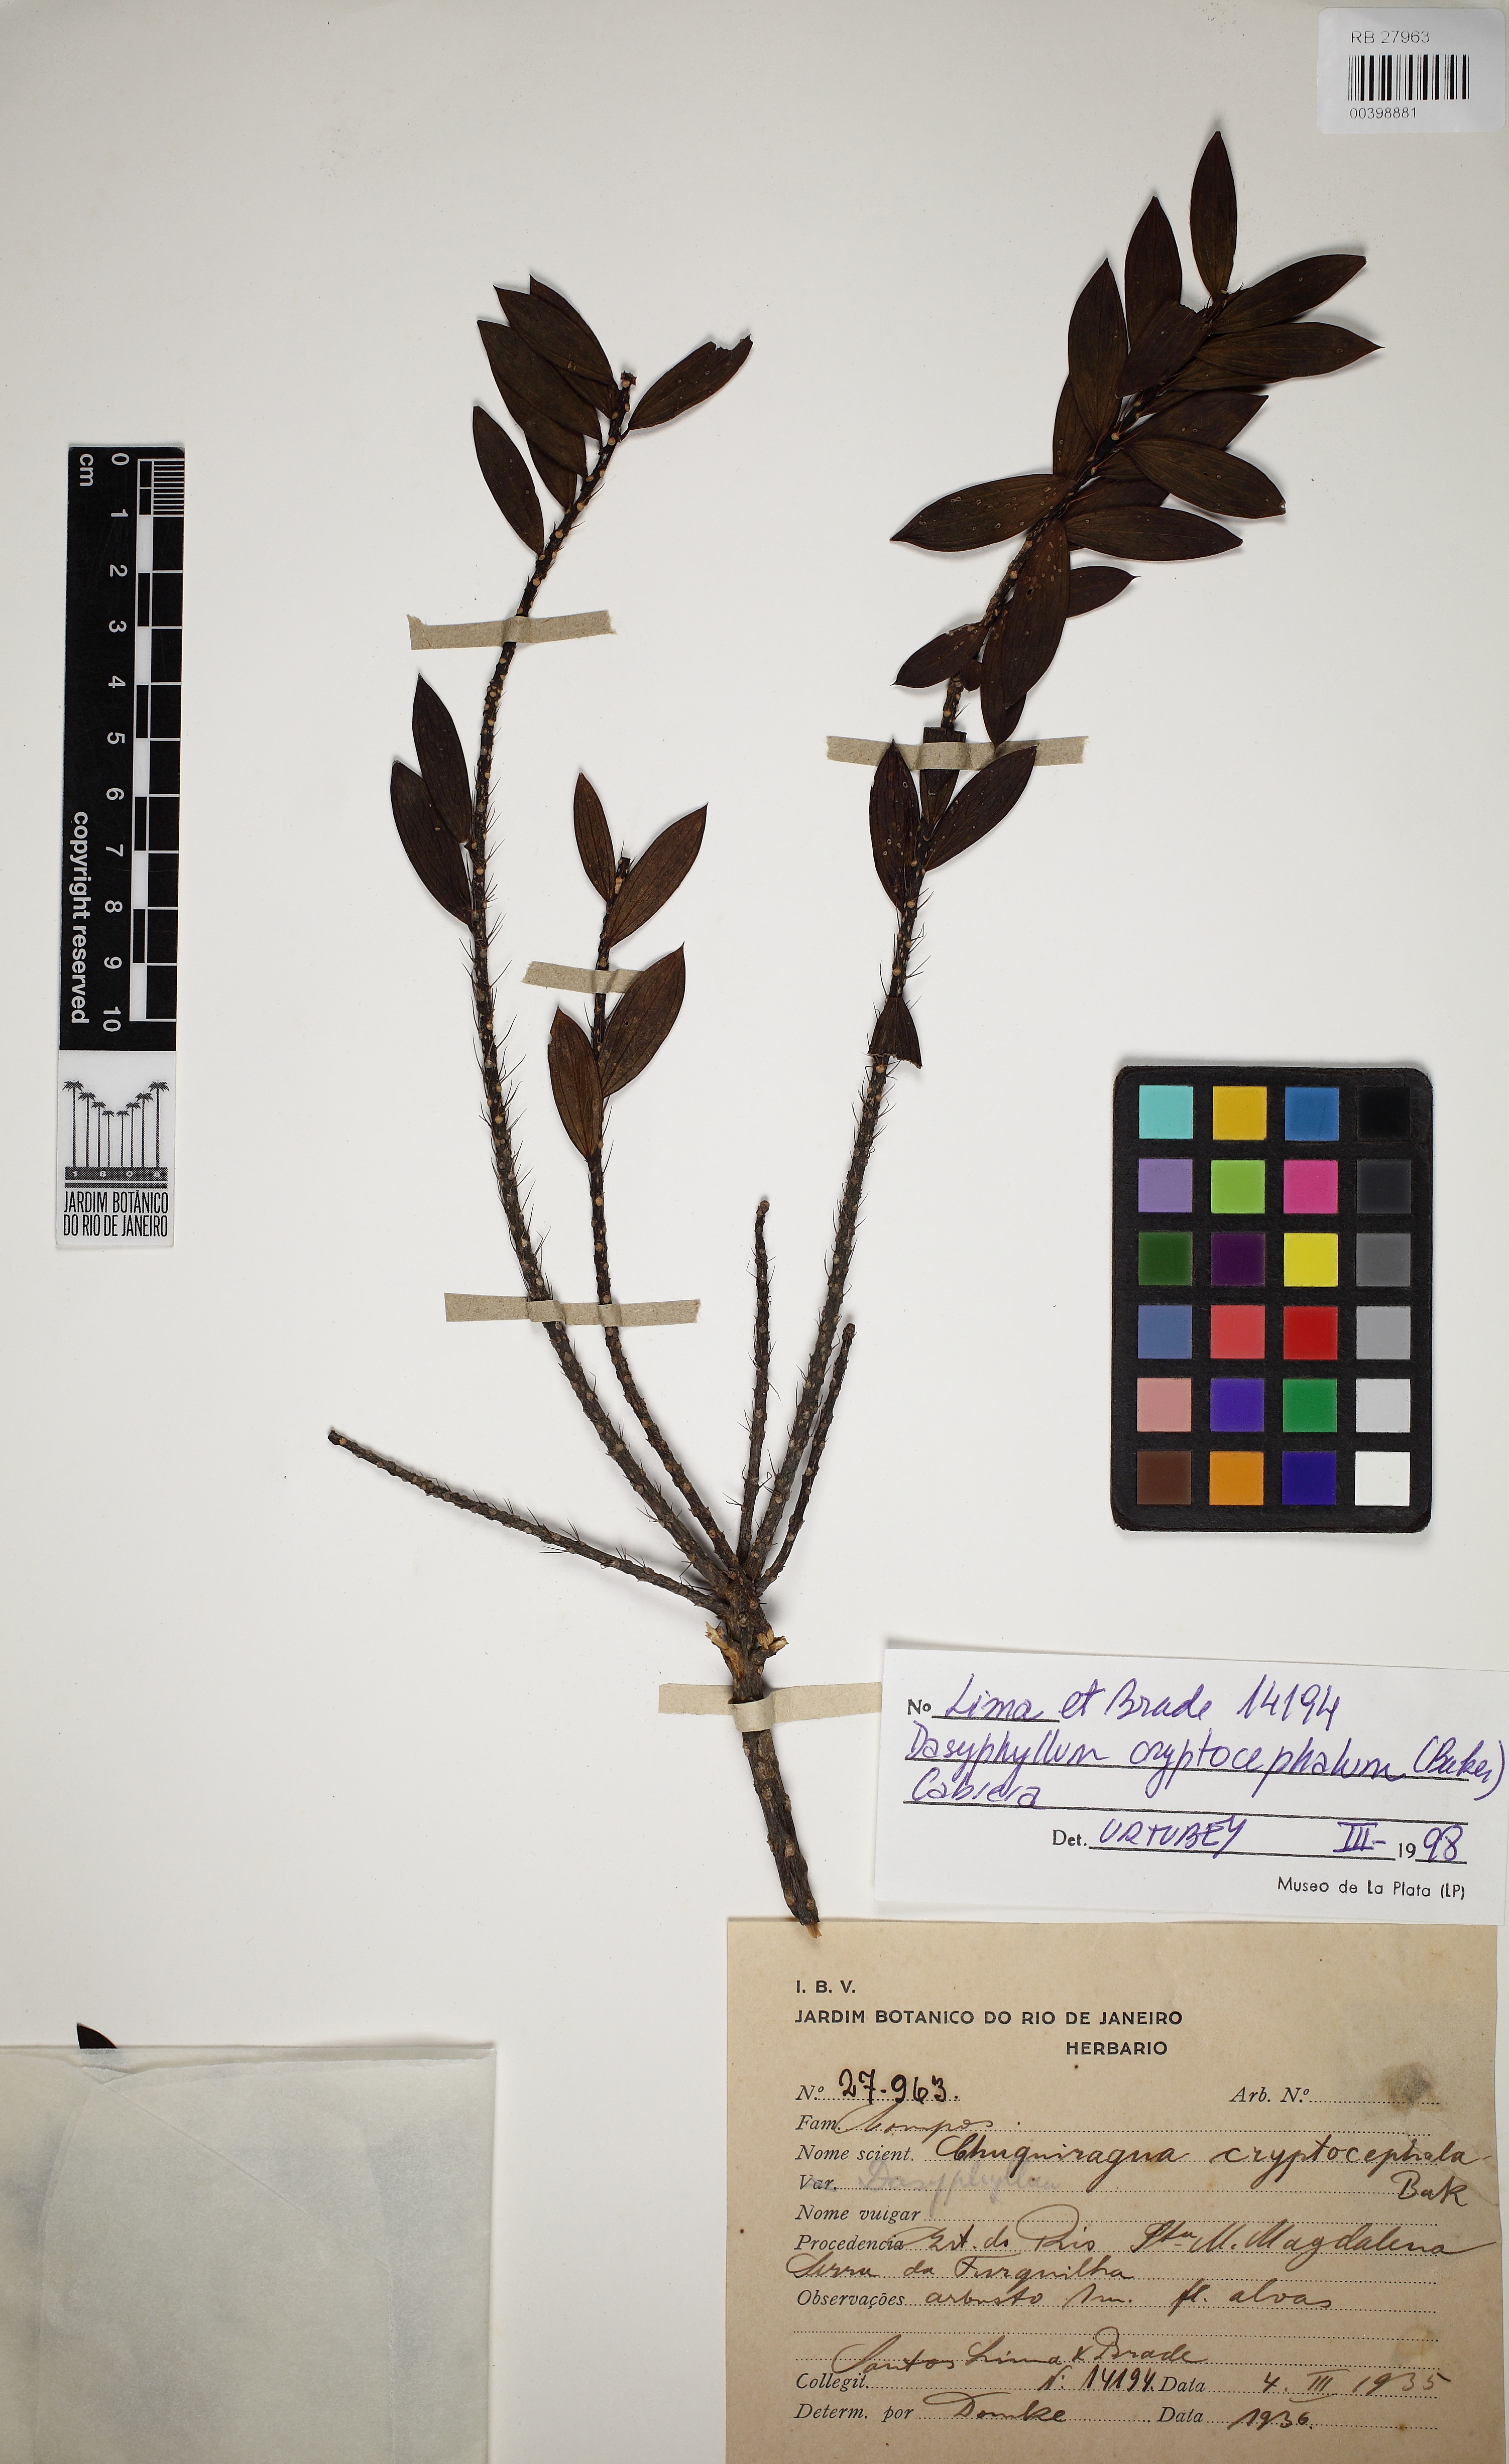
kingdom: Plantae
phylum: Tracheophyta
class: Magnoliopsida
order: Asterales
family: Asteraceae
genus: Dasyphyllum
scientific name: Dasyphyllum cryptocephalum
